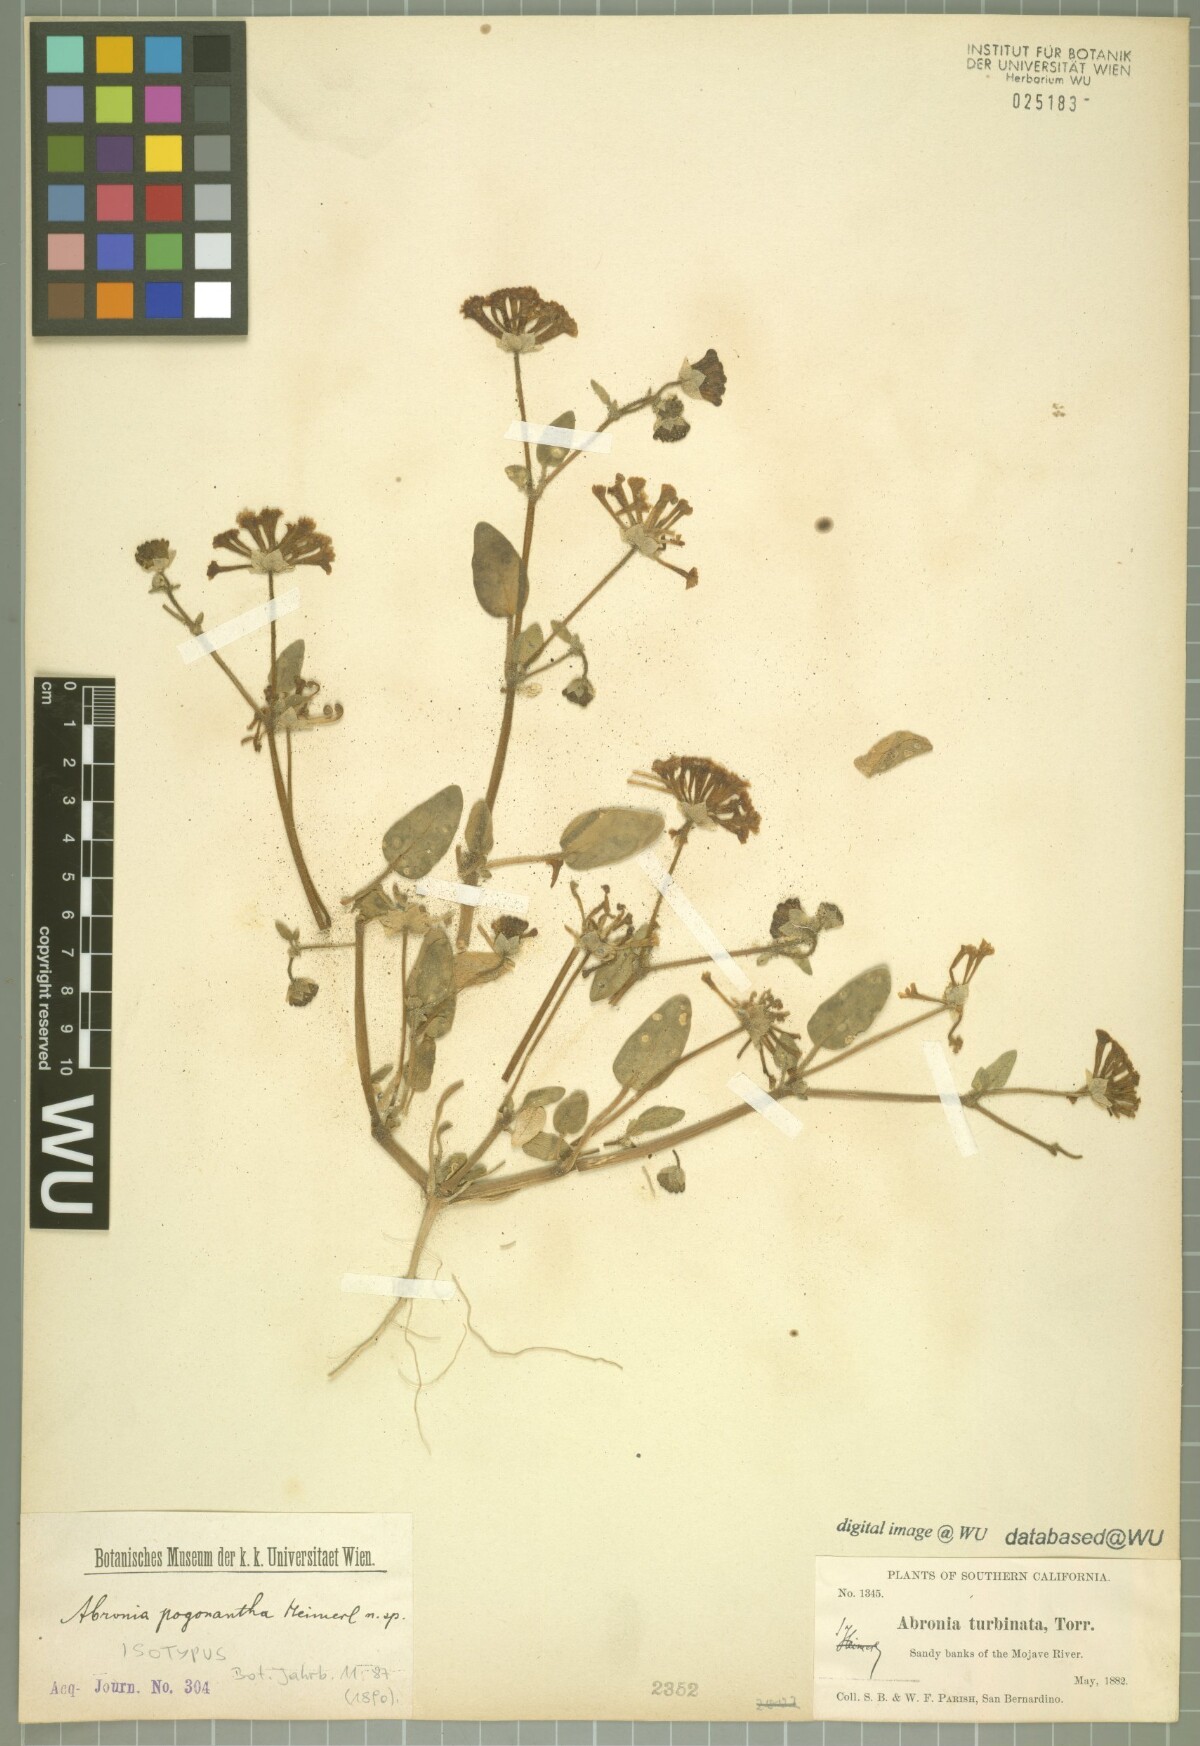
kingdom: Plantae
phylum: Tracheophyta
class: Magnoliopsida
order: Caryophyllales
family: Nyctaginaceae
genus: Abronia
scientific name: Abronia pogonantha
